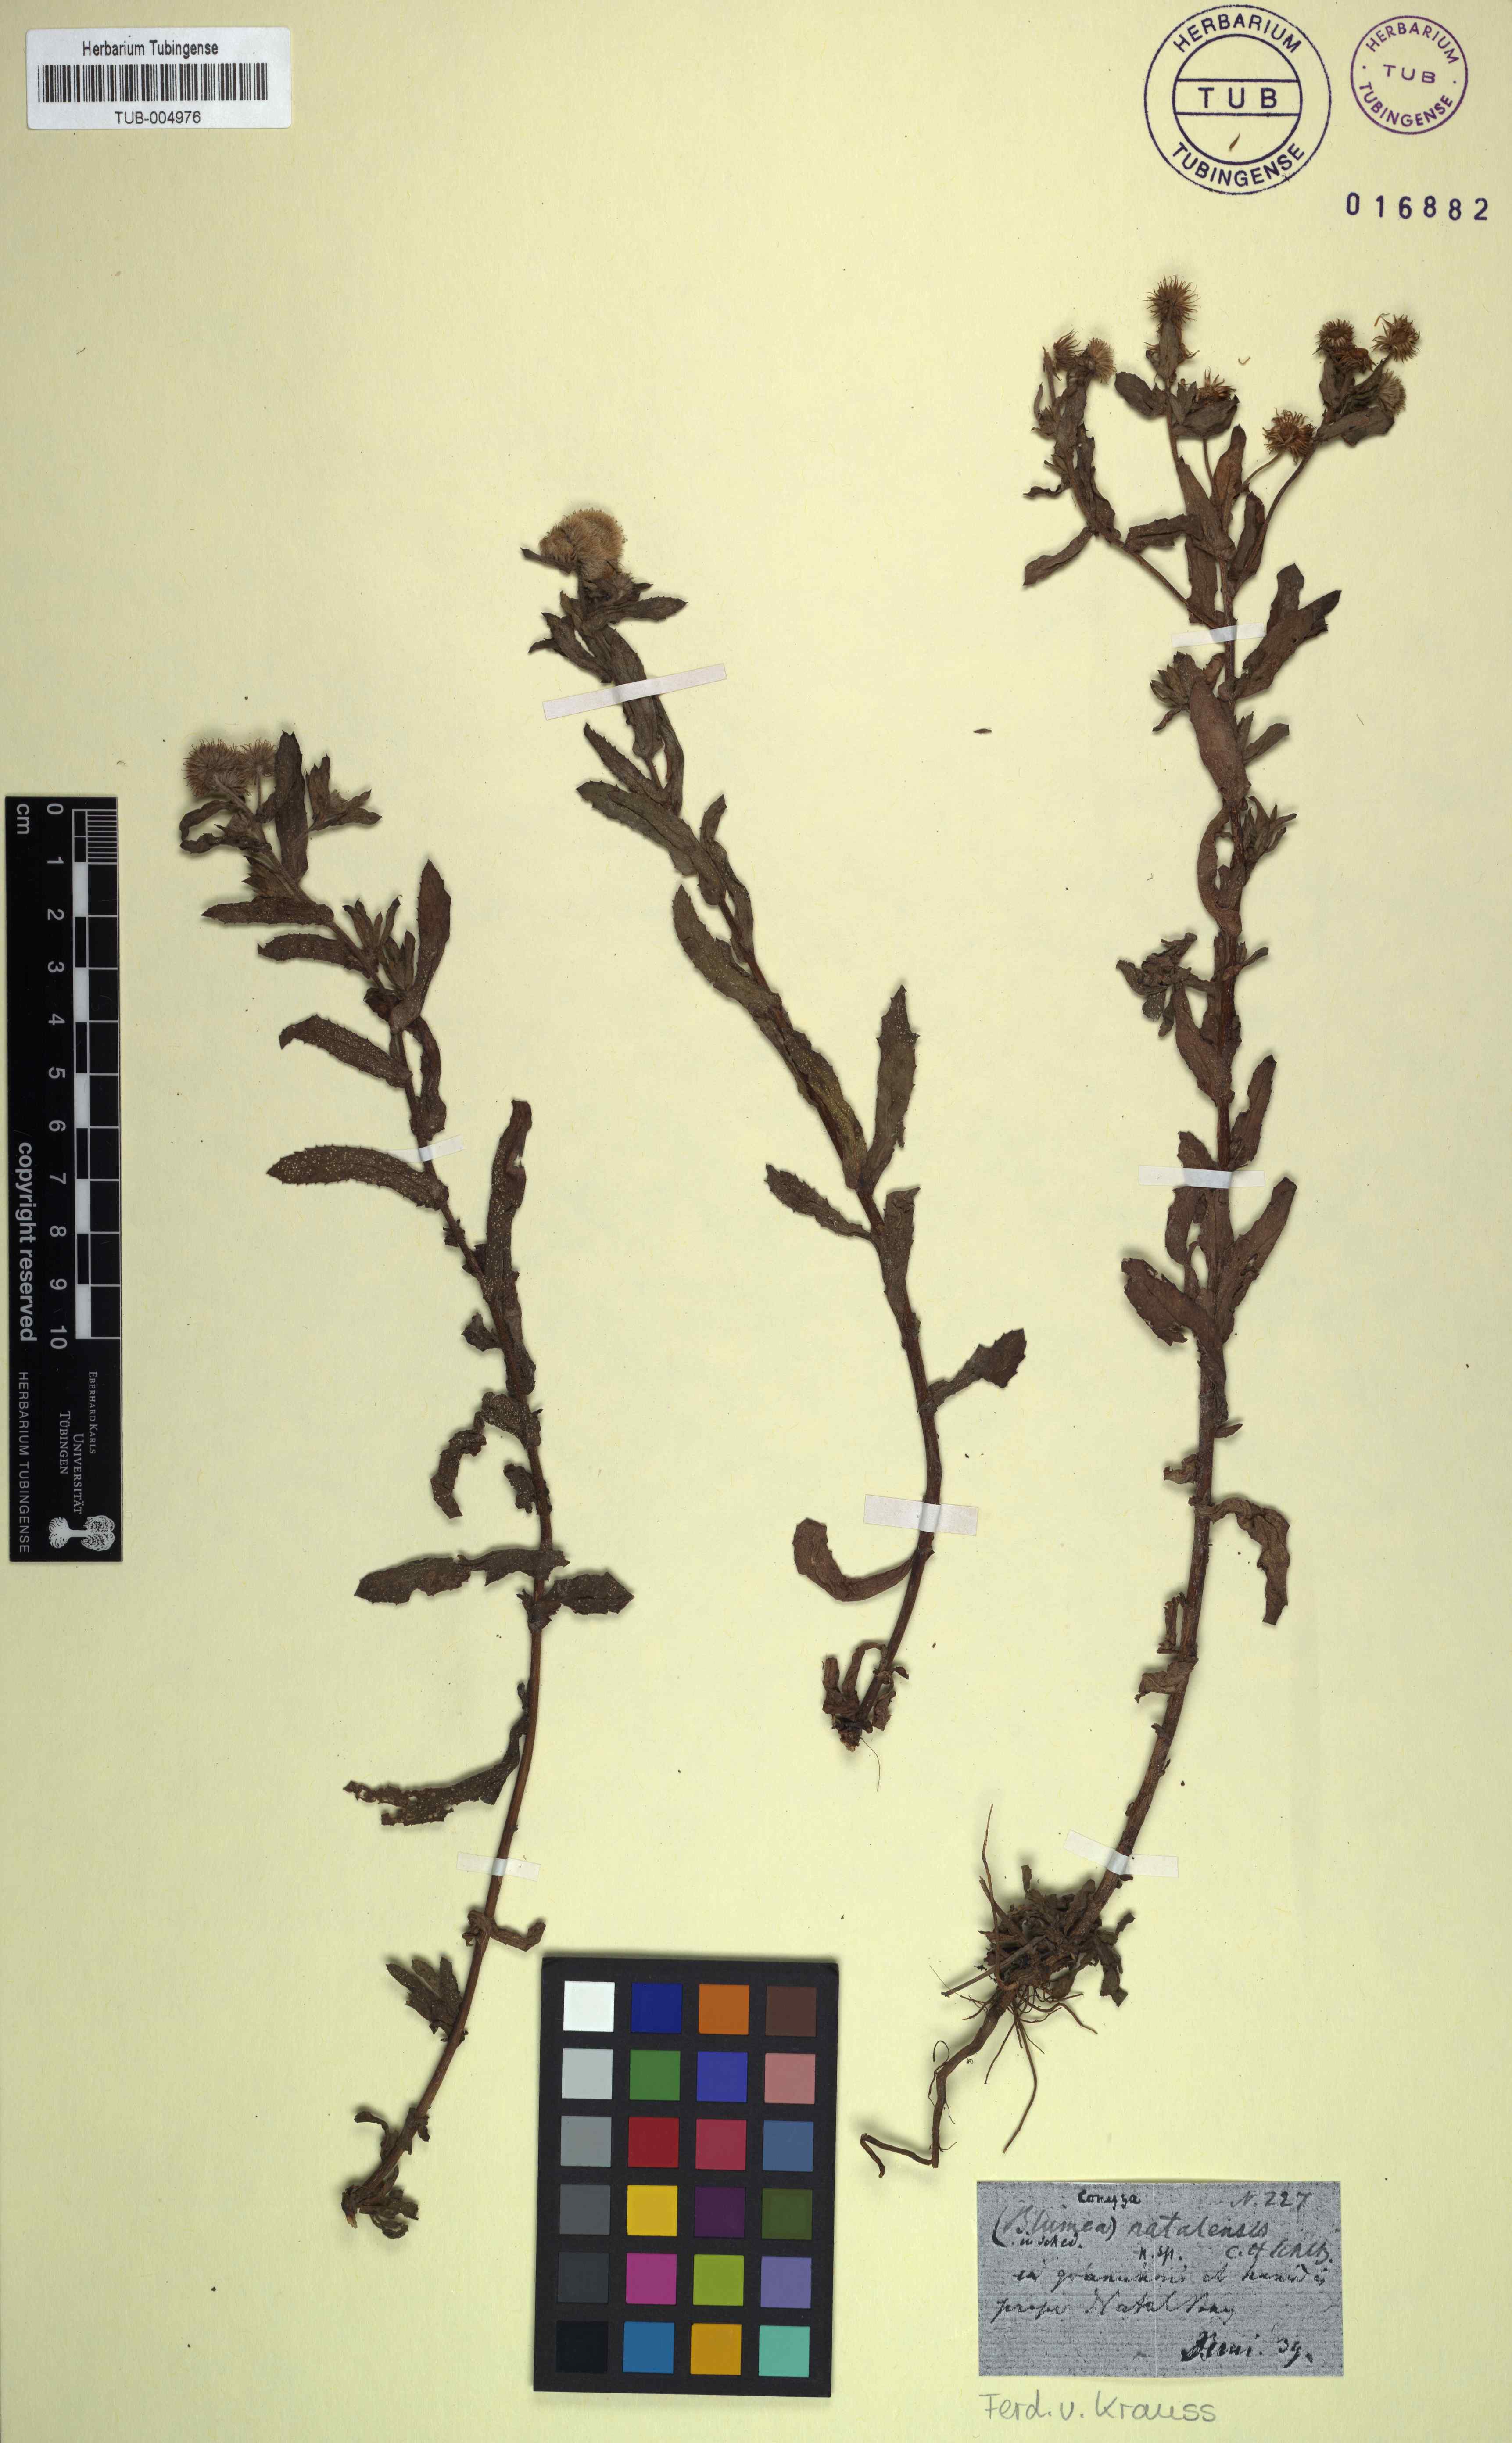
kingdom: Plantae
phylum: Tracheophyta
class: Magnoliopsida
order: Asterales
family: Asteraceae
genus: Doellia
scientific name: Doellia cafra
